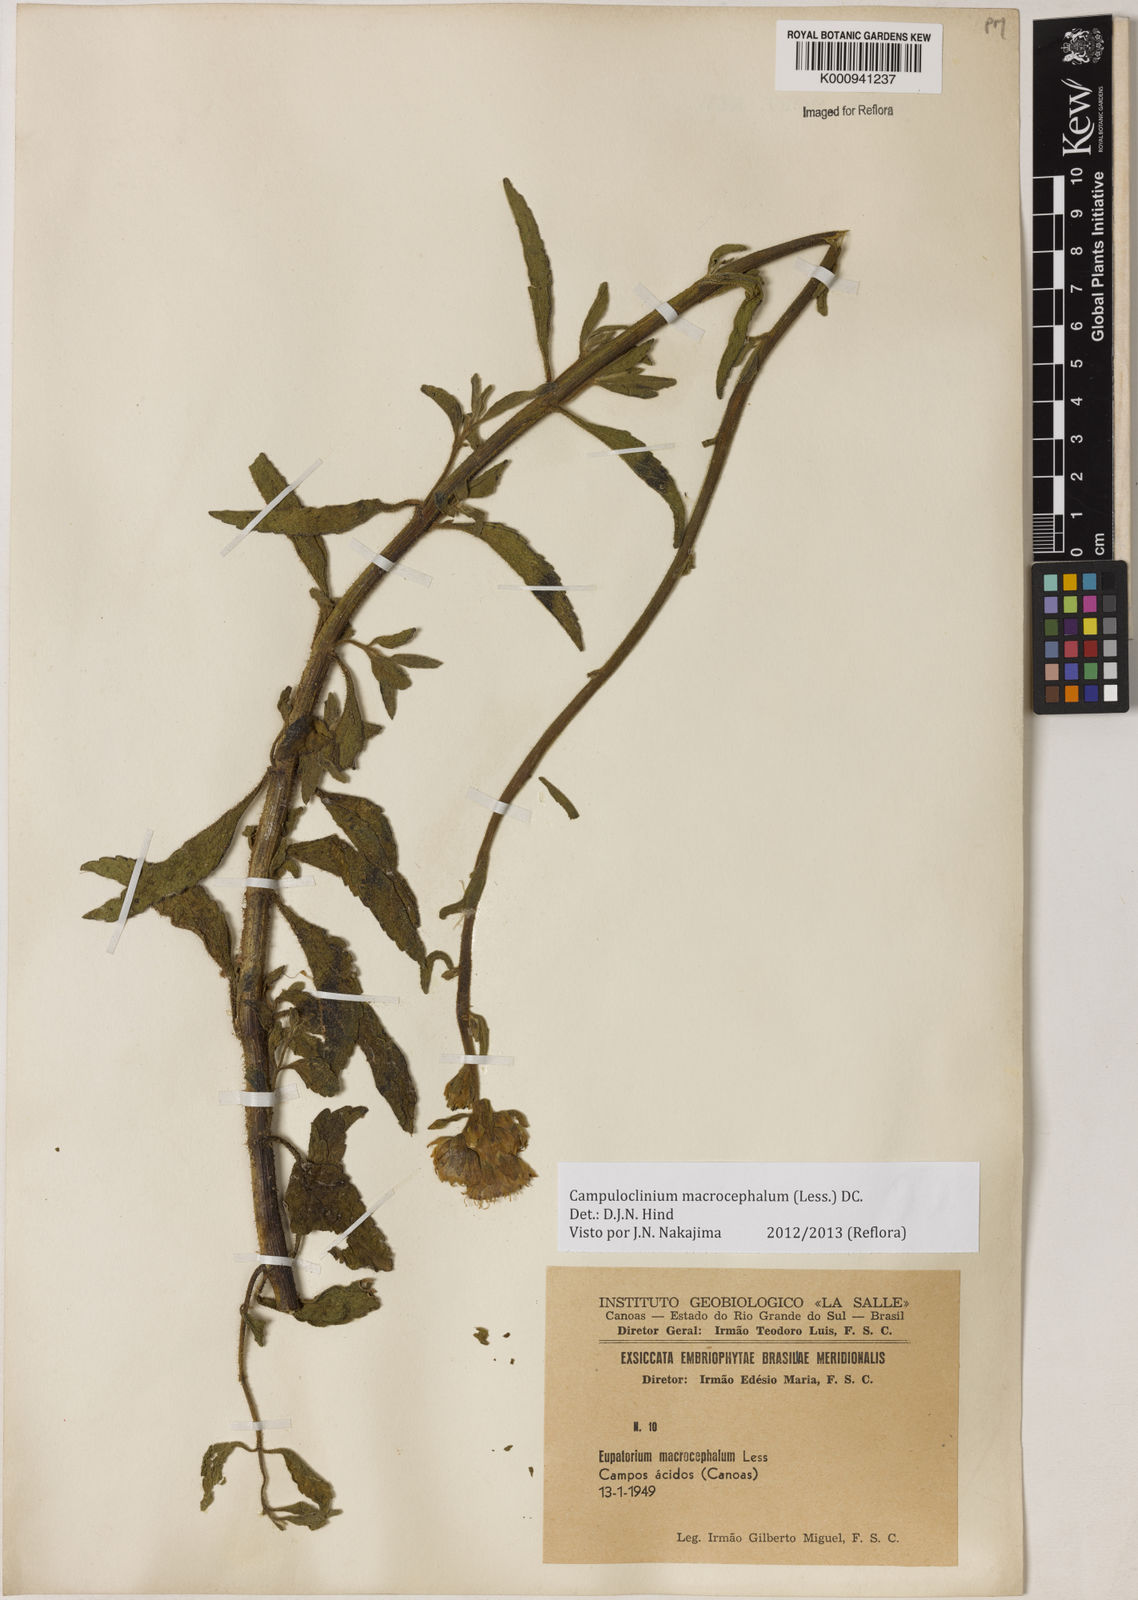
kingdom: Plantae
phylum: Tracheophyta
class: Magnoliopsida
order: Asterales
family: Asteraceae
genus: Campuloclinium
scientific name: Campuloclinium macrocephalum
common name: Pompomweed
